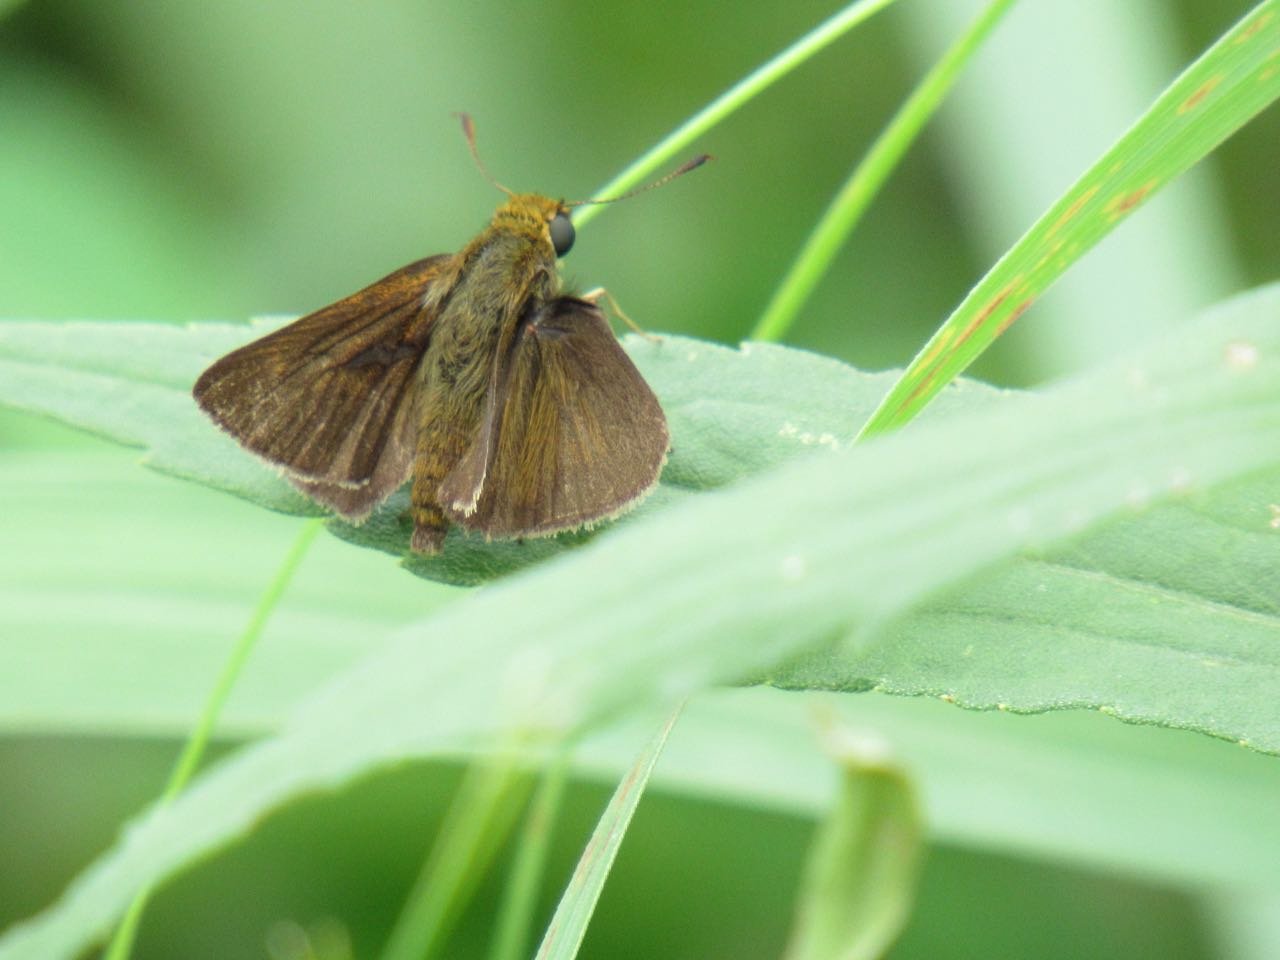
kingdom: Animalia
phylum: Arthropoda
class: Insecta
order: Lepidoptera
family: Hesperiidae
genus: Euphyes
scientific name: Euphyes vestris
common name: Dun Skipper
